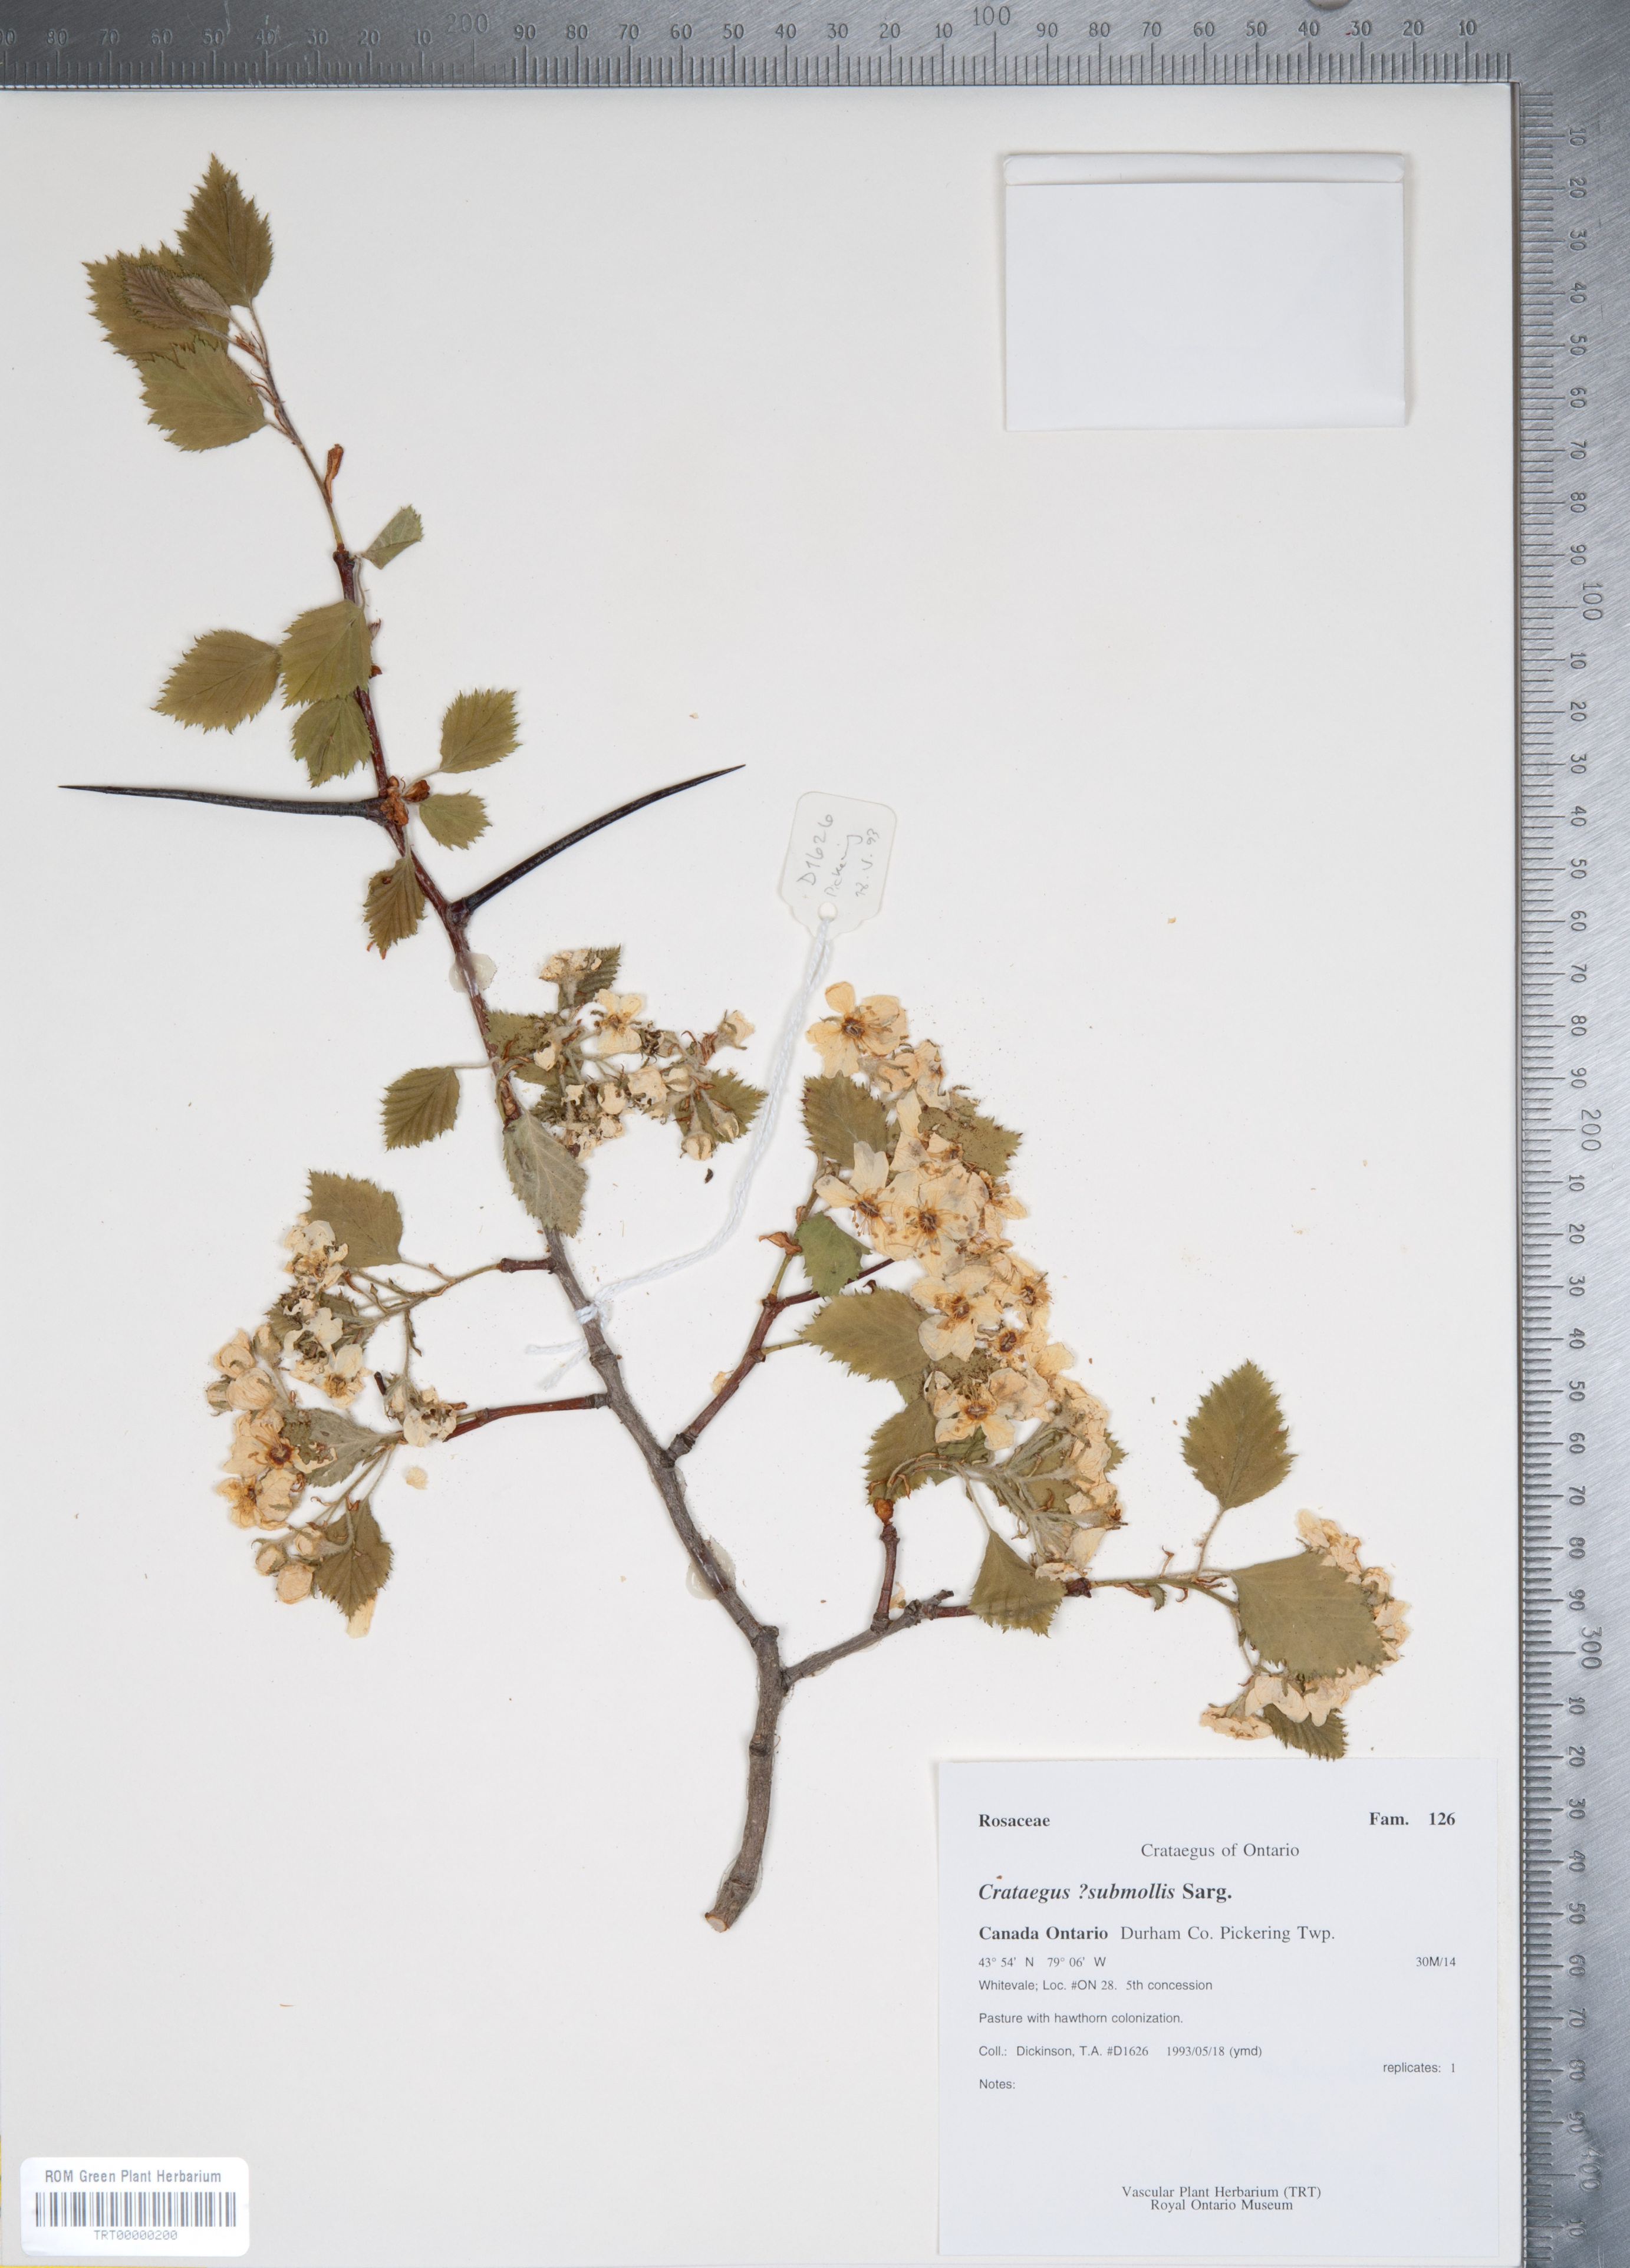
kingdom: Plantae
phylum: Tracheophyta
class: Magnoliopsida
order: Rosales
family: Rosaceae
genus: Crataegus
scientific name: Crataegus submollis
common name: Hairy cockspurthorn
